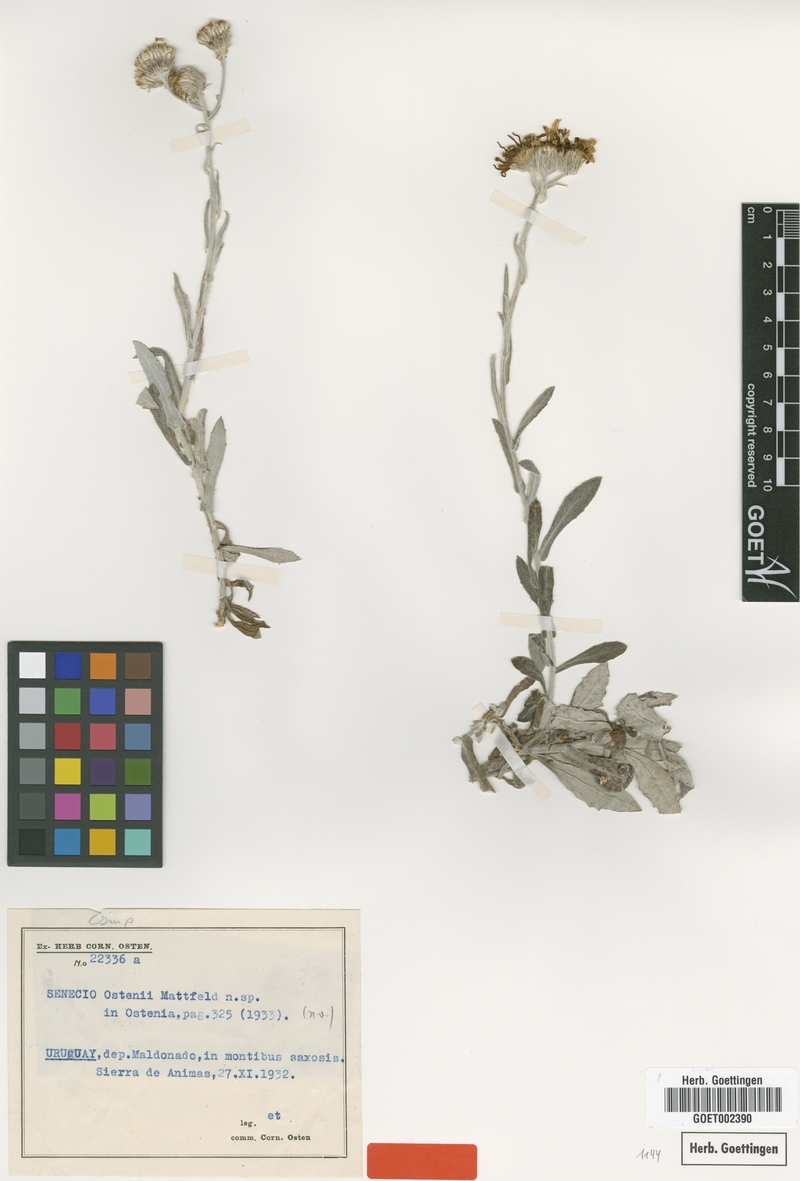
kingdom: Plantae
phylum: Tracheophyta
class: Magnoliopsida
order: Asterales
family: Asteraceae
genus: Senecio
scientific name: Senecio ostenii
